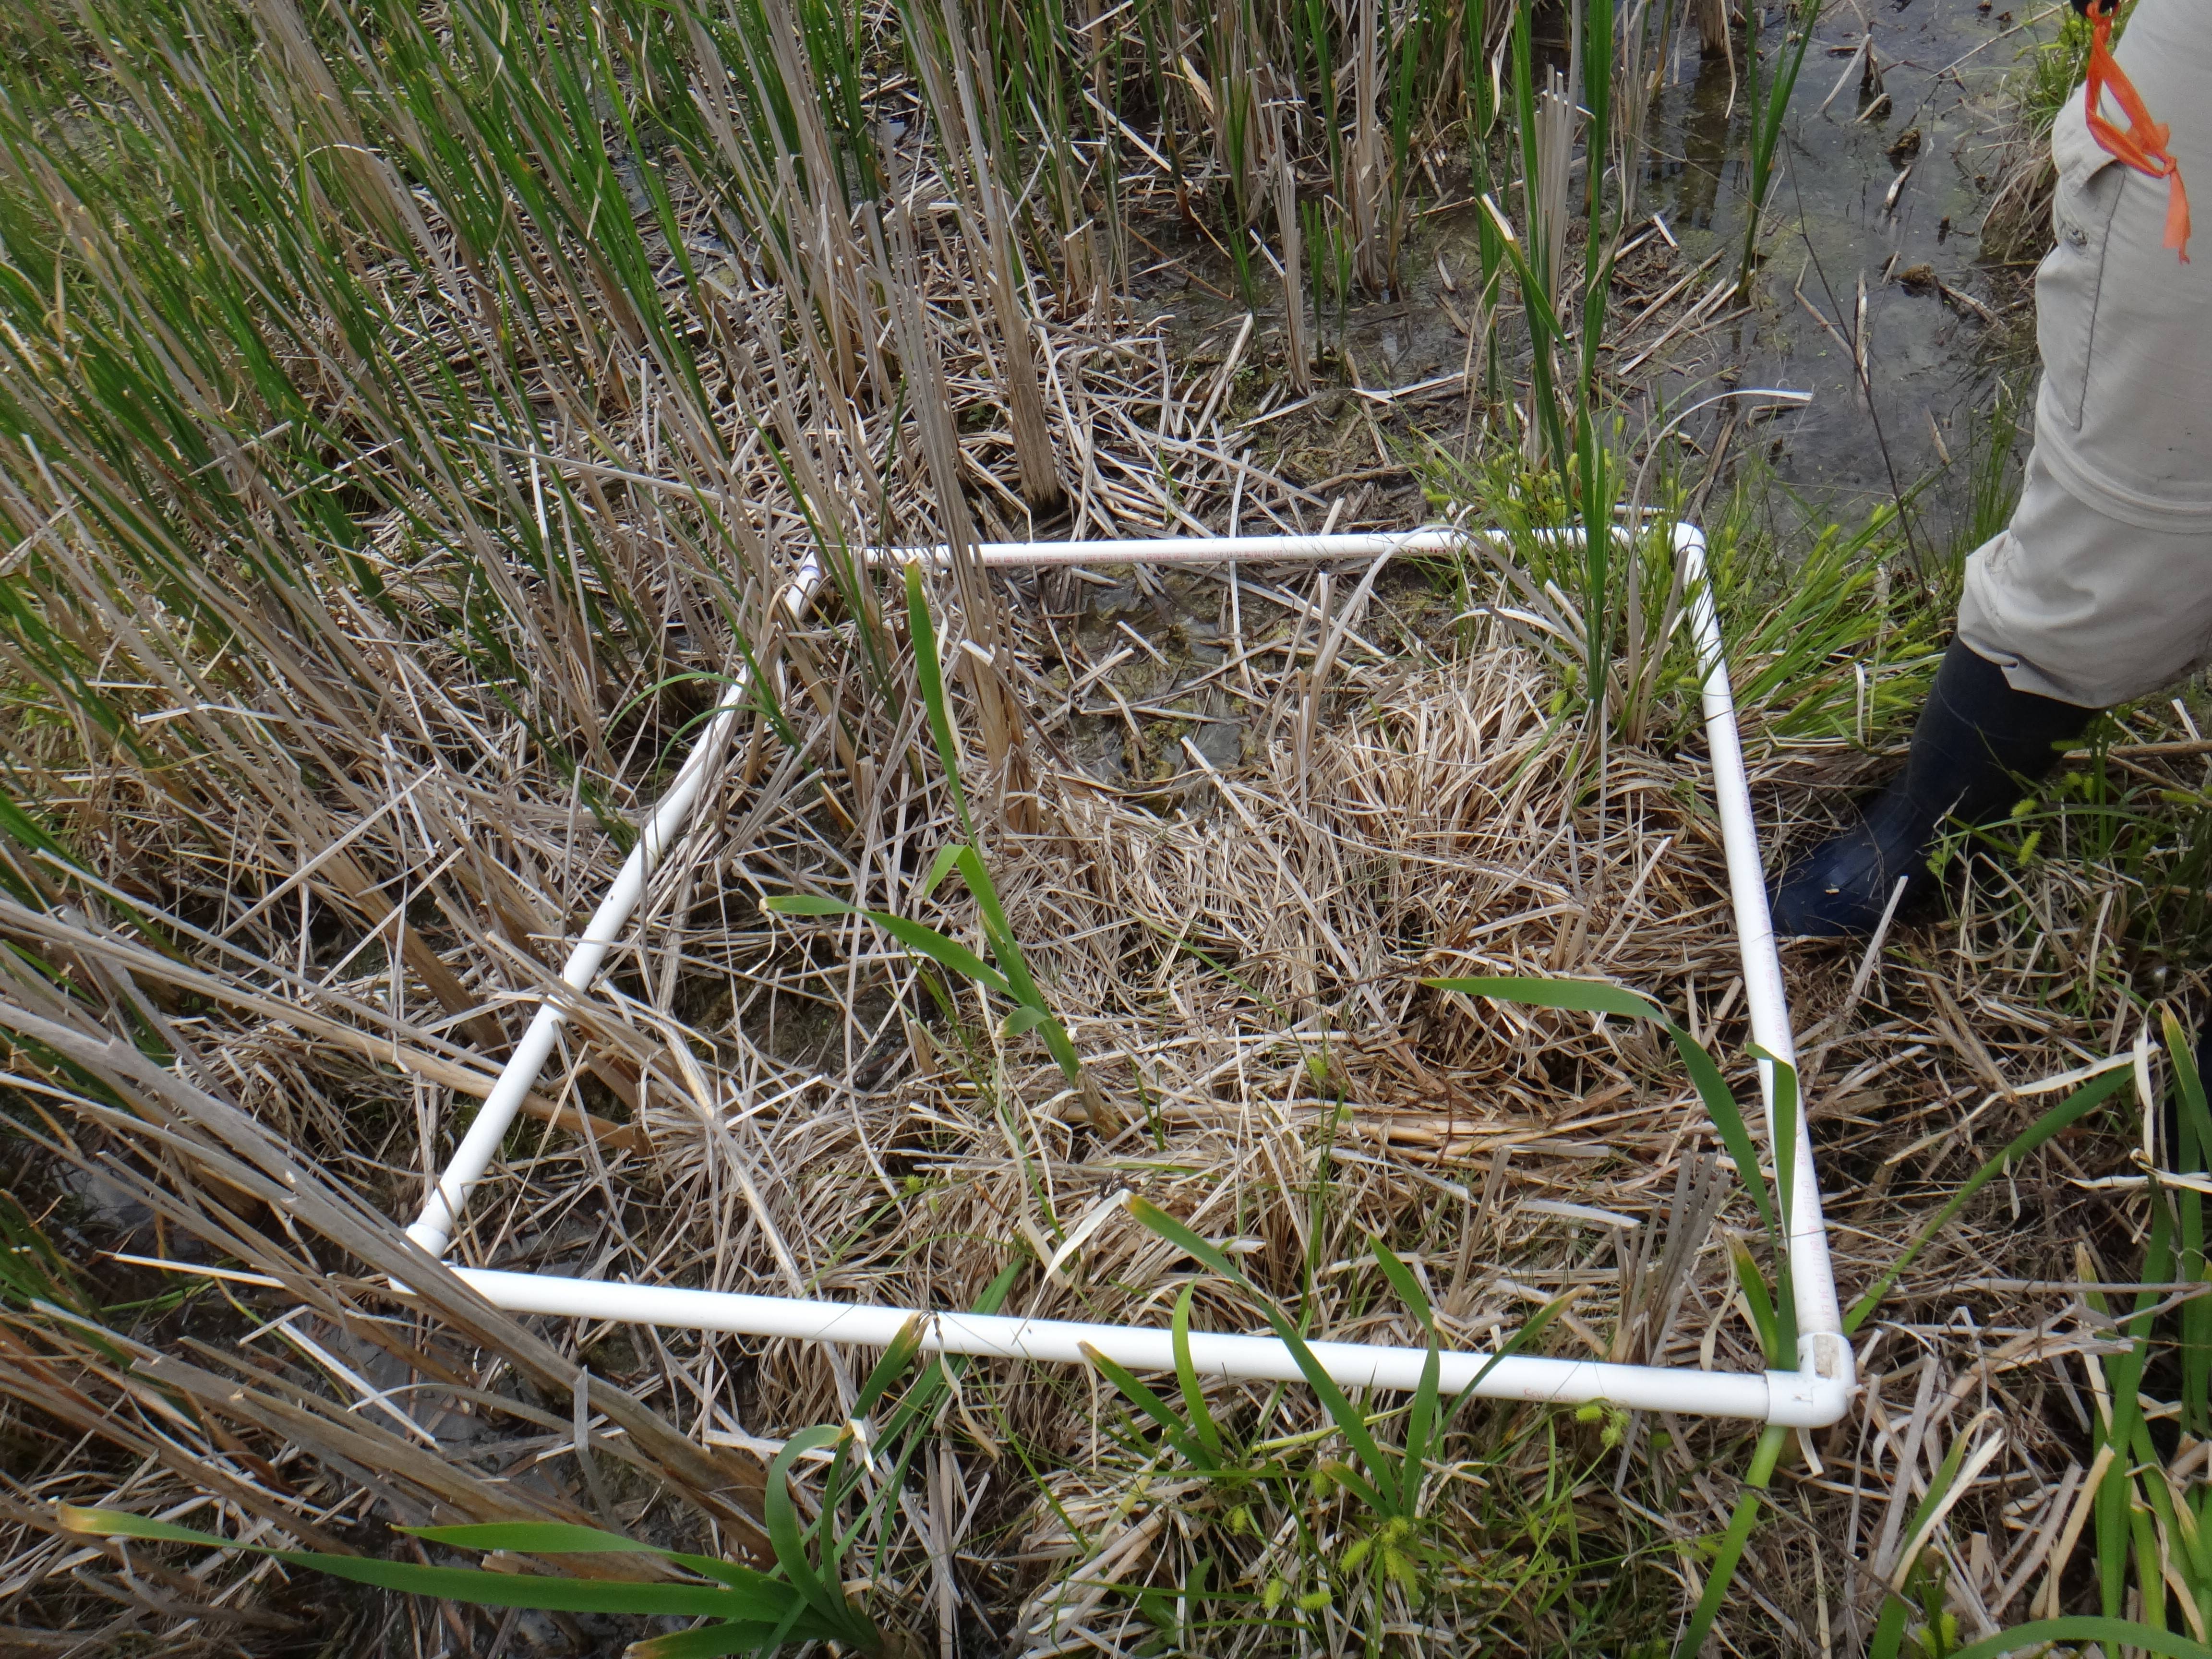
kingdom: Plantae
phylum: Tracheophyta
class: Liliopsida
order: Poales
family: Typhaceae
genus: Typha
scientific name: Typha latifolia
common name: Broadleaf cattail
